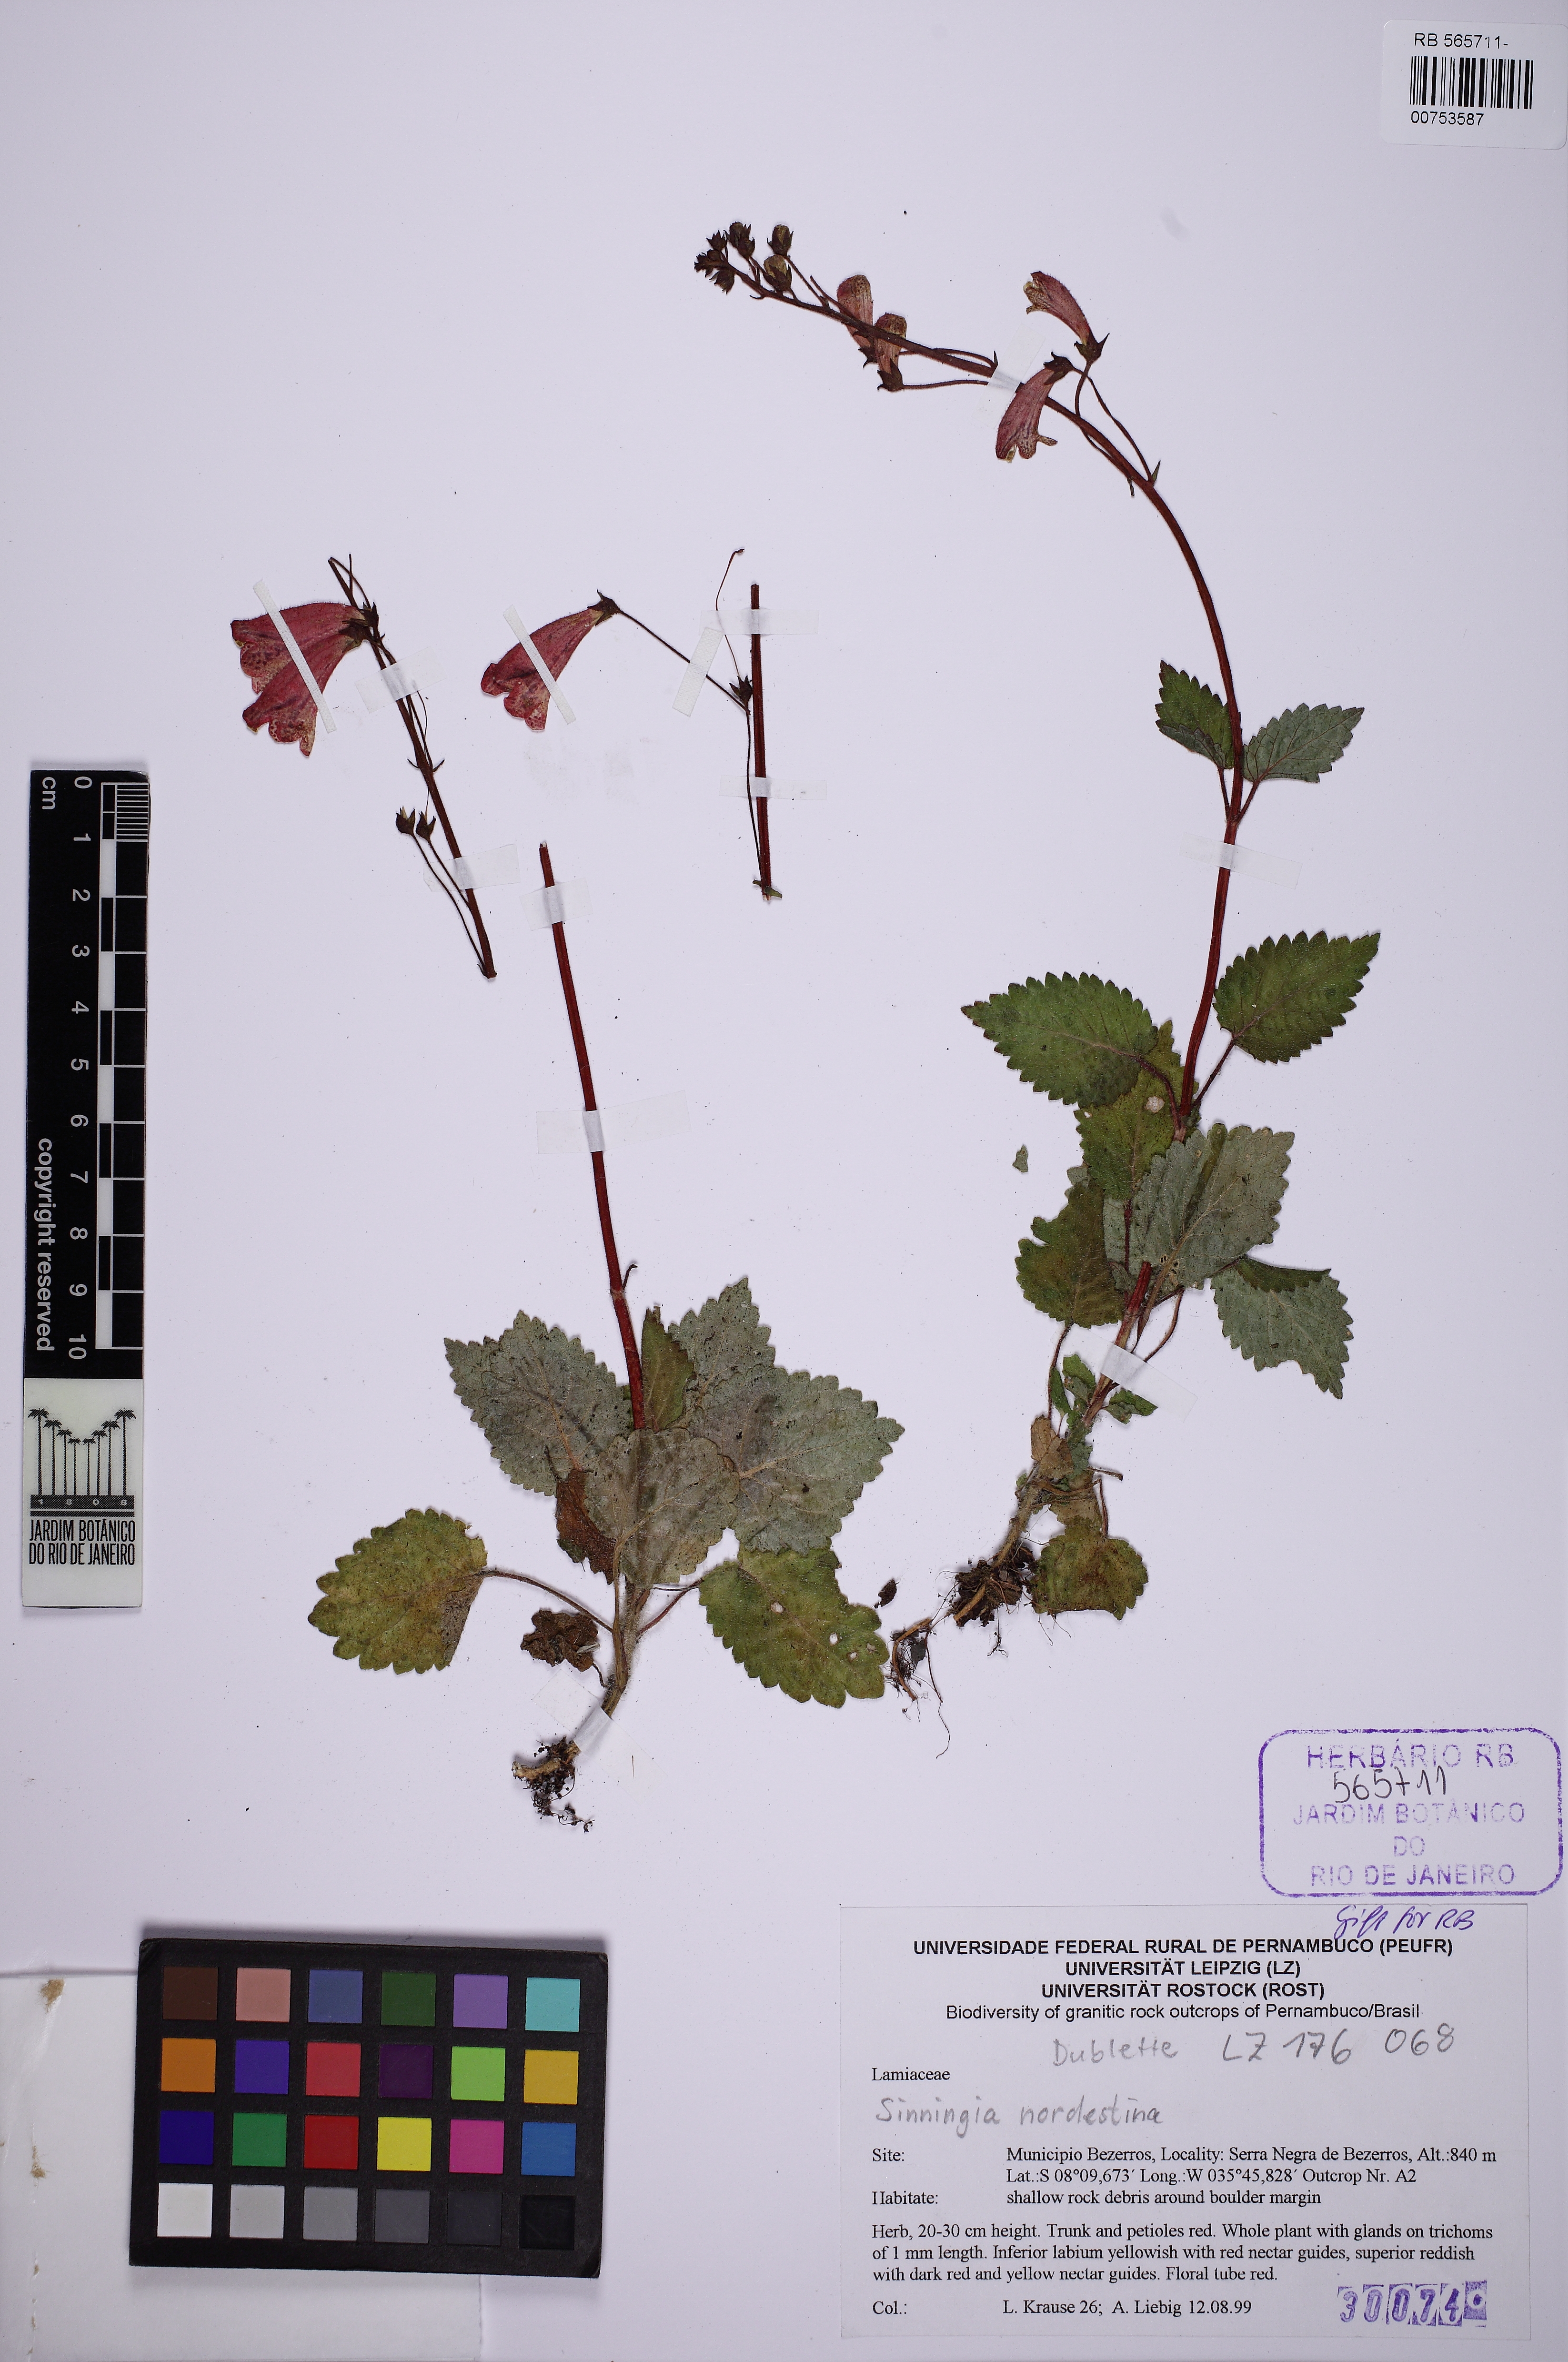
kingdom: Plantae
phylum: Tracheophyta
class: Magnoliopsida
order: Lamiales
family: Gesneriaceae
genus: Sinningia
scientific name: Sinningia nordestina
